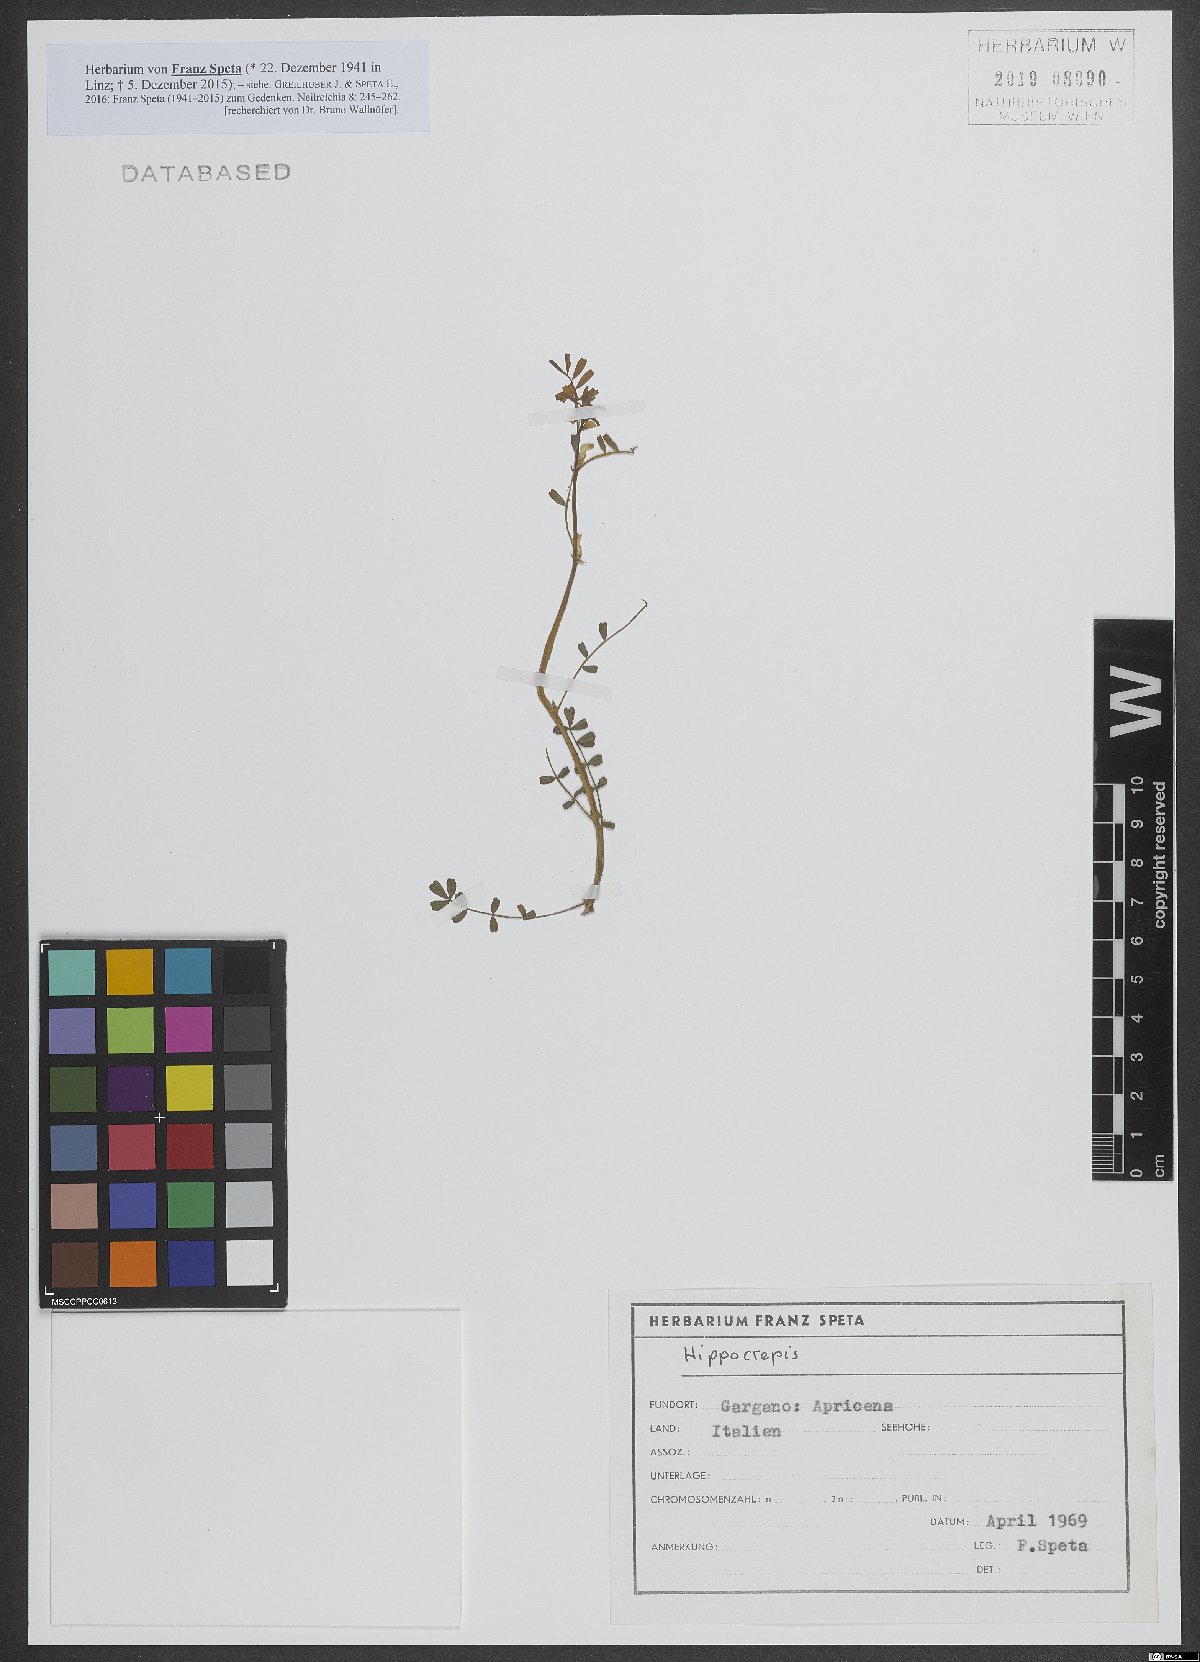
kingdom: Plantae
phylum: Tracheophyta
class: Magnoliopsida
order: Fabales
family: Fabaceae
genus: Hippocrepis
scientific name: Hippocrepis
